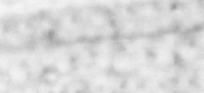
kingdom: Animalia
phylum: Chordata
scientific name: Chordata
